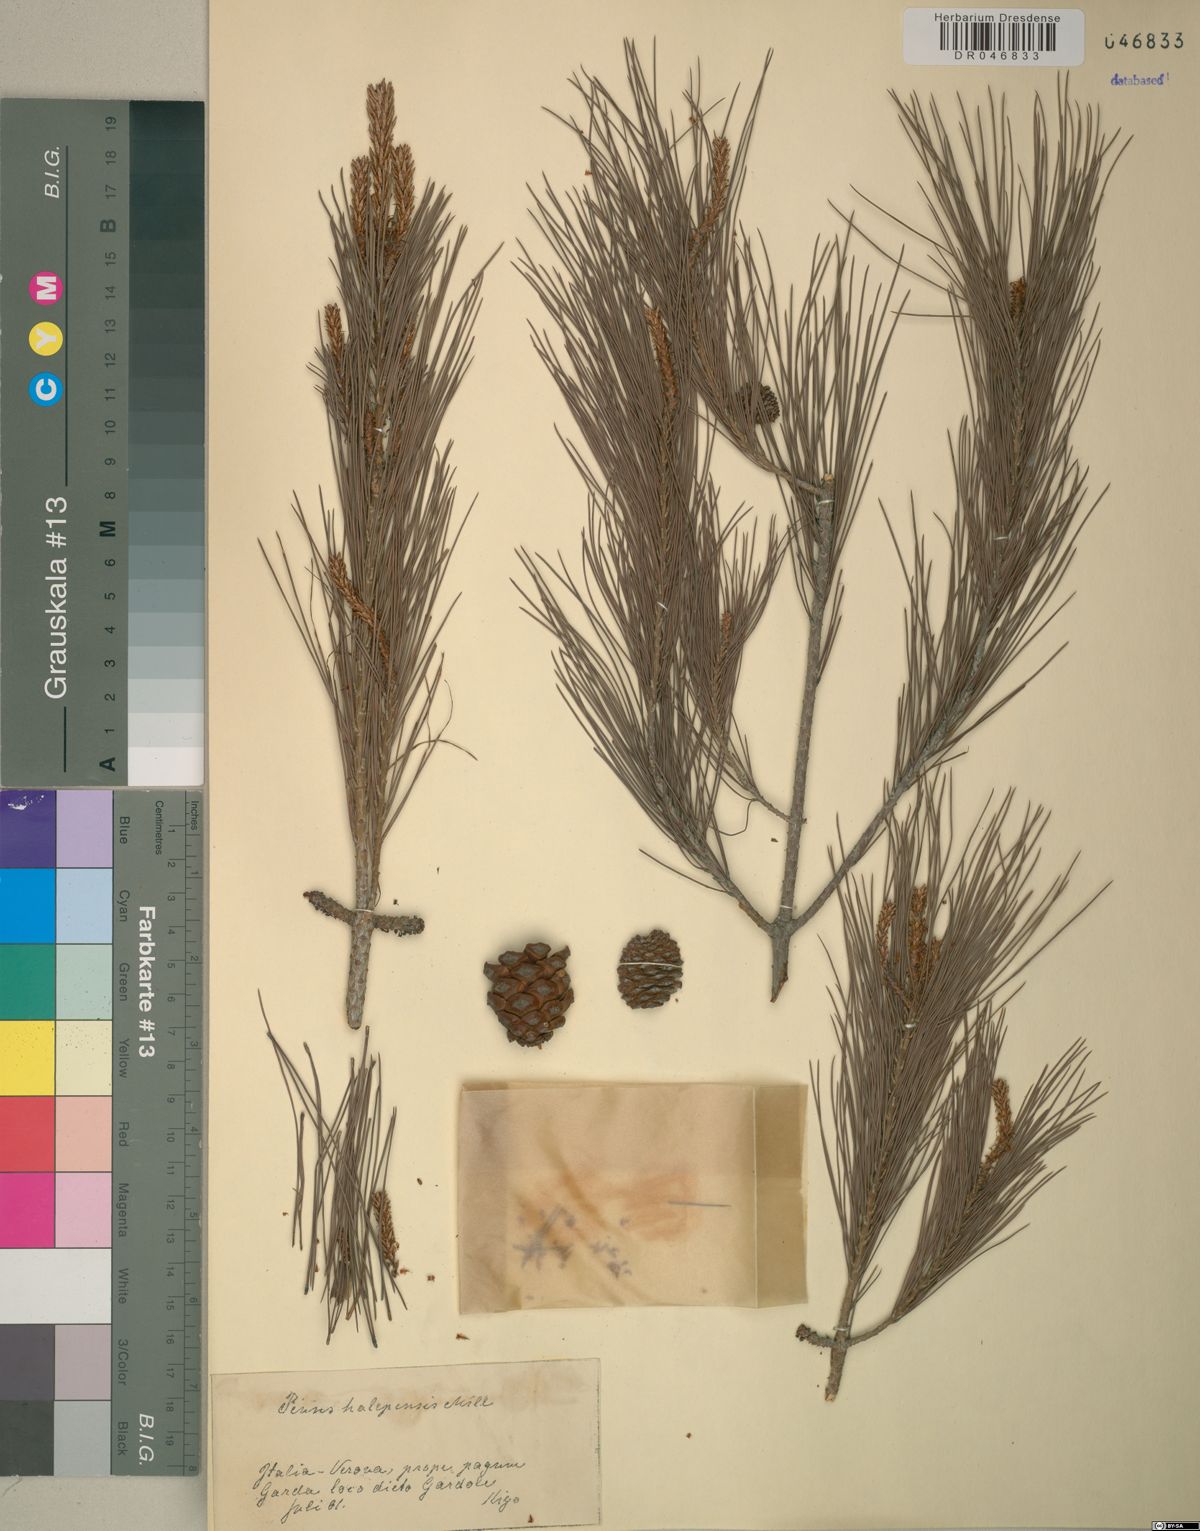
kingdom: Plantae
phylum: Tracheophyta
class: Pinopsida
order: Pinales
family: Pinaceae
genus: Pinus
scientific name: Pinus halepensis
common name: Aleppo pine
